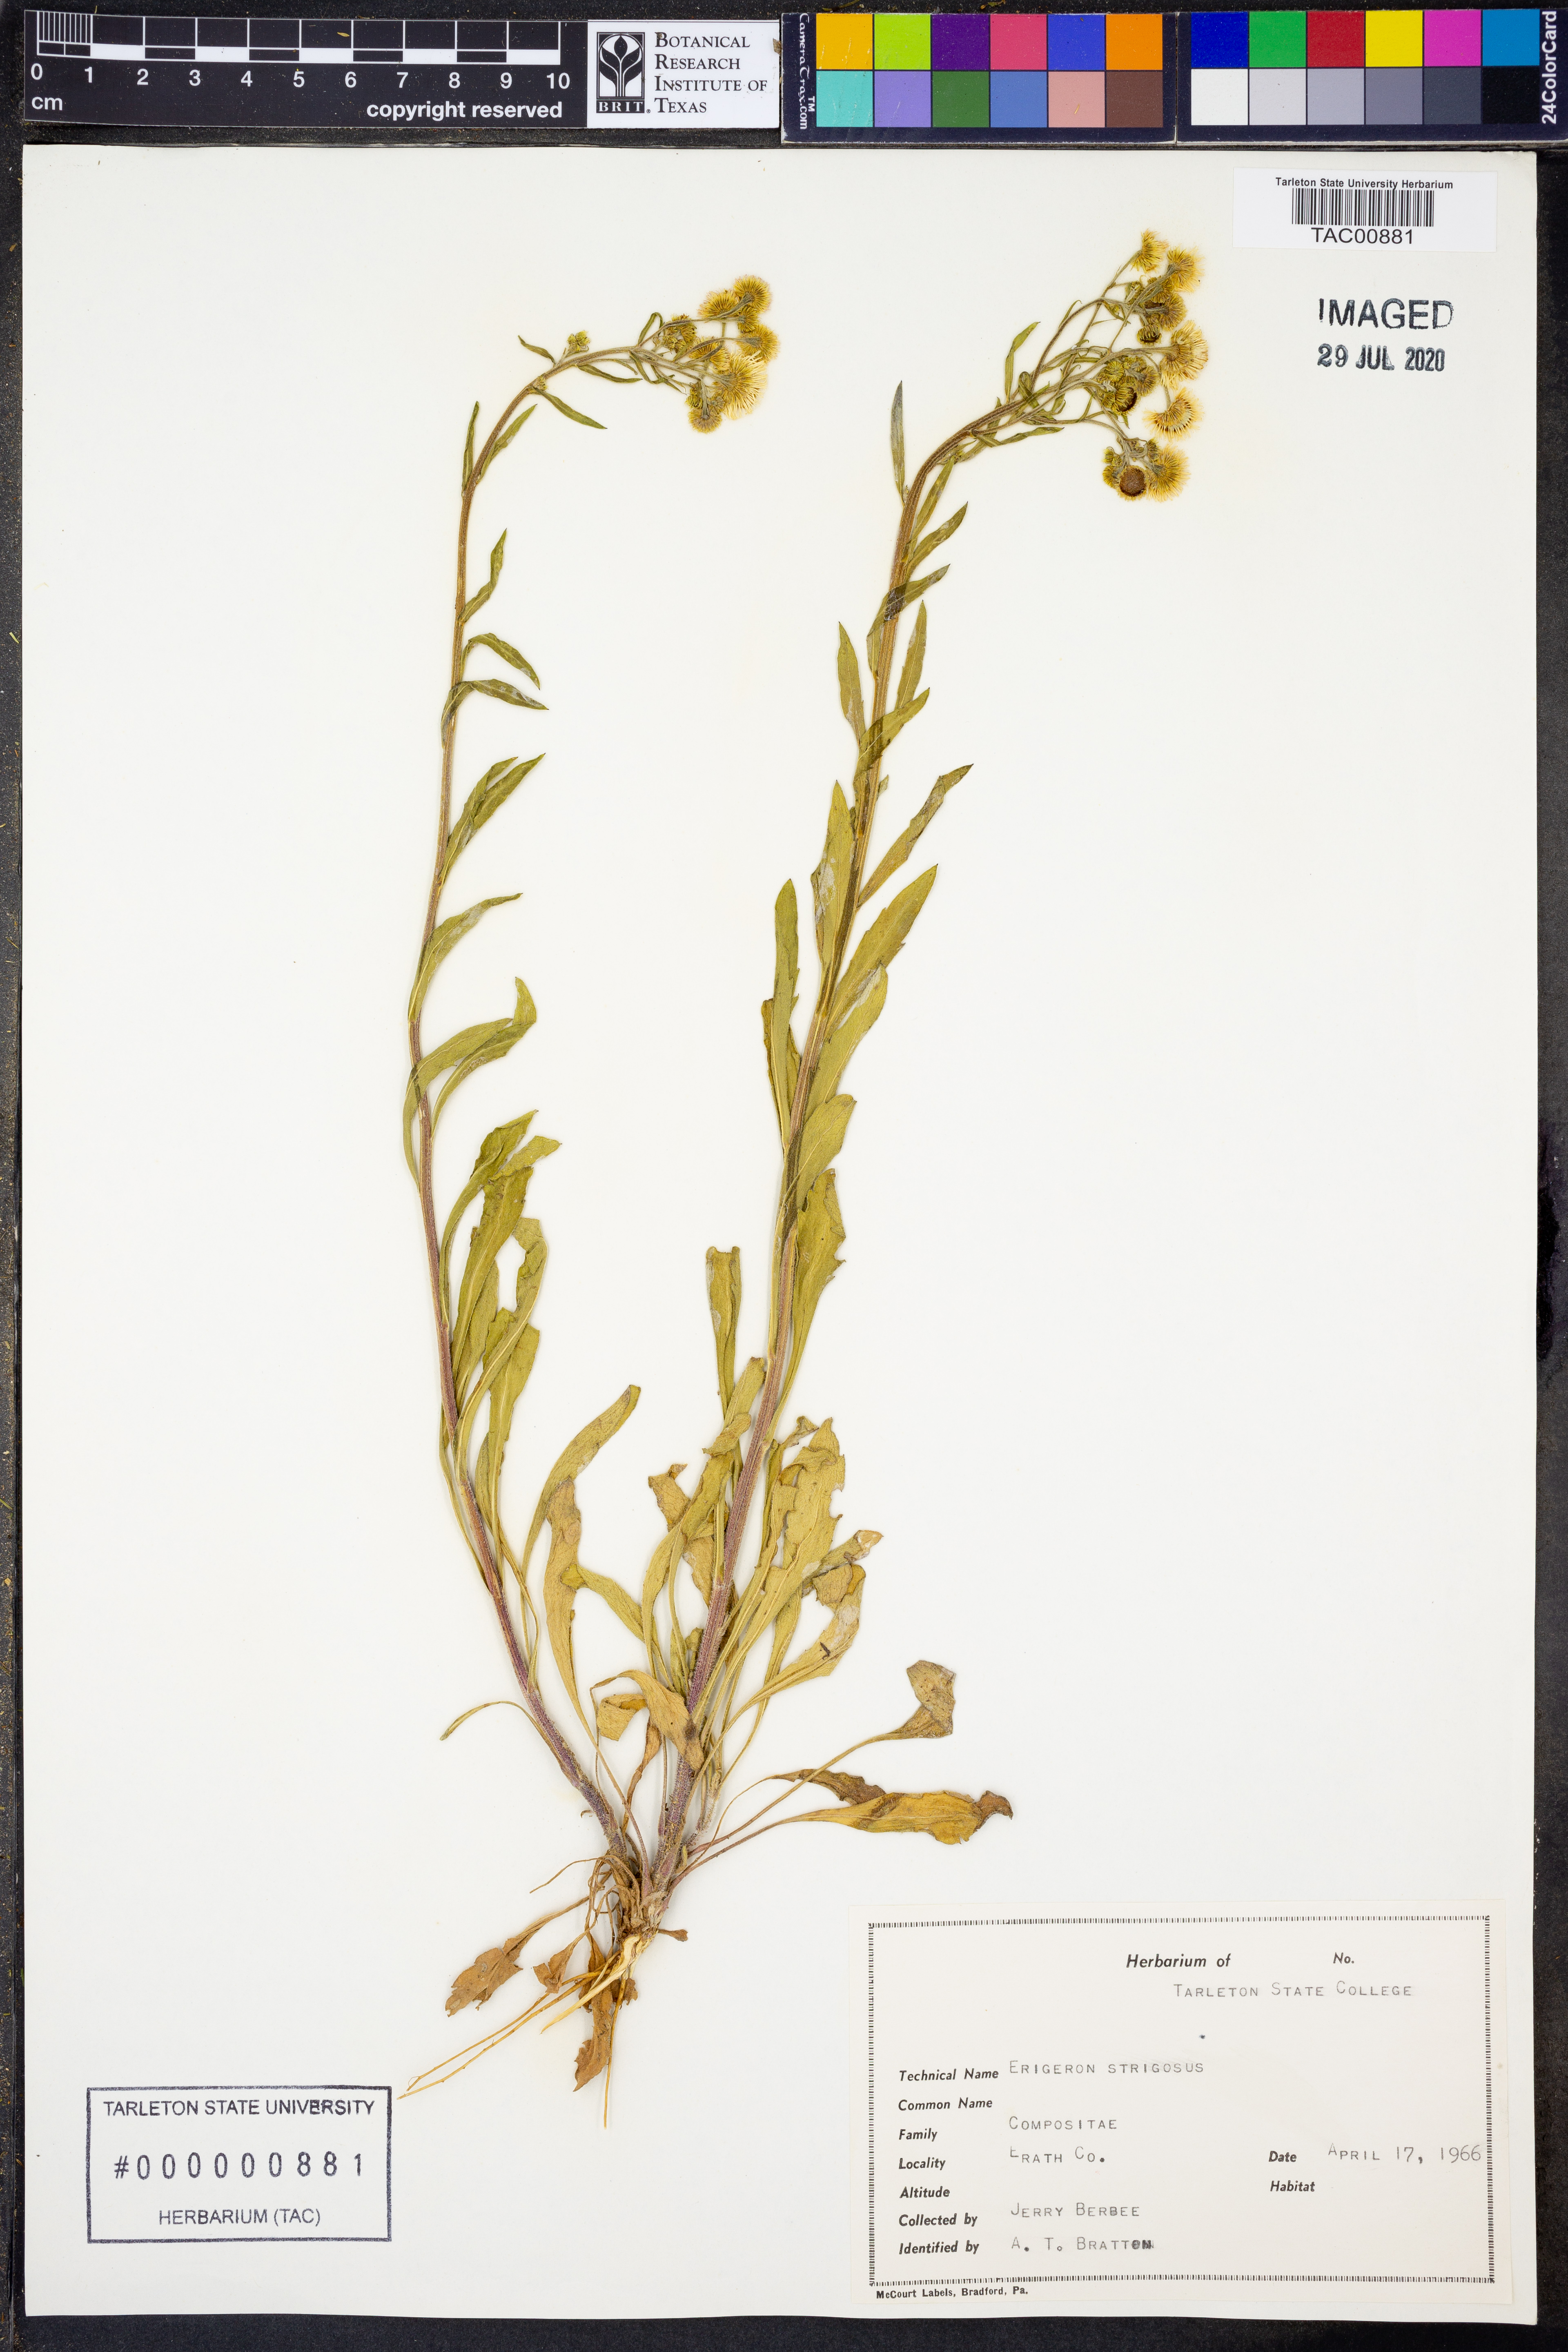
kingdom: Plantae
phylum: Tracheophyta
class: Magnoliopsida
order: Asterales
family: Asteraceae
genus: Erigeron
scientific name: Erigeron strigosus
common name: Common eastern fleabane
